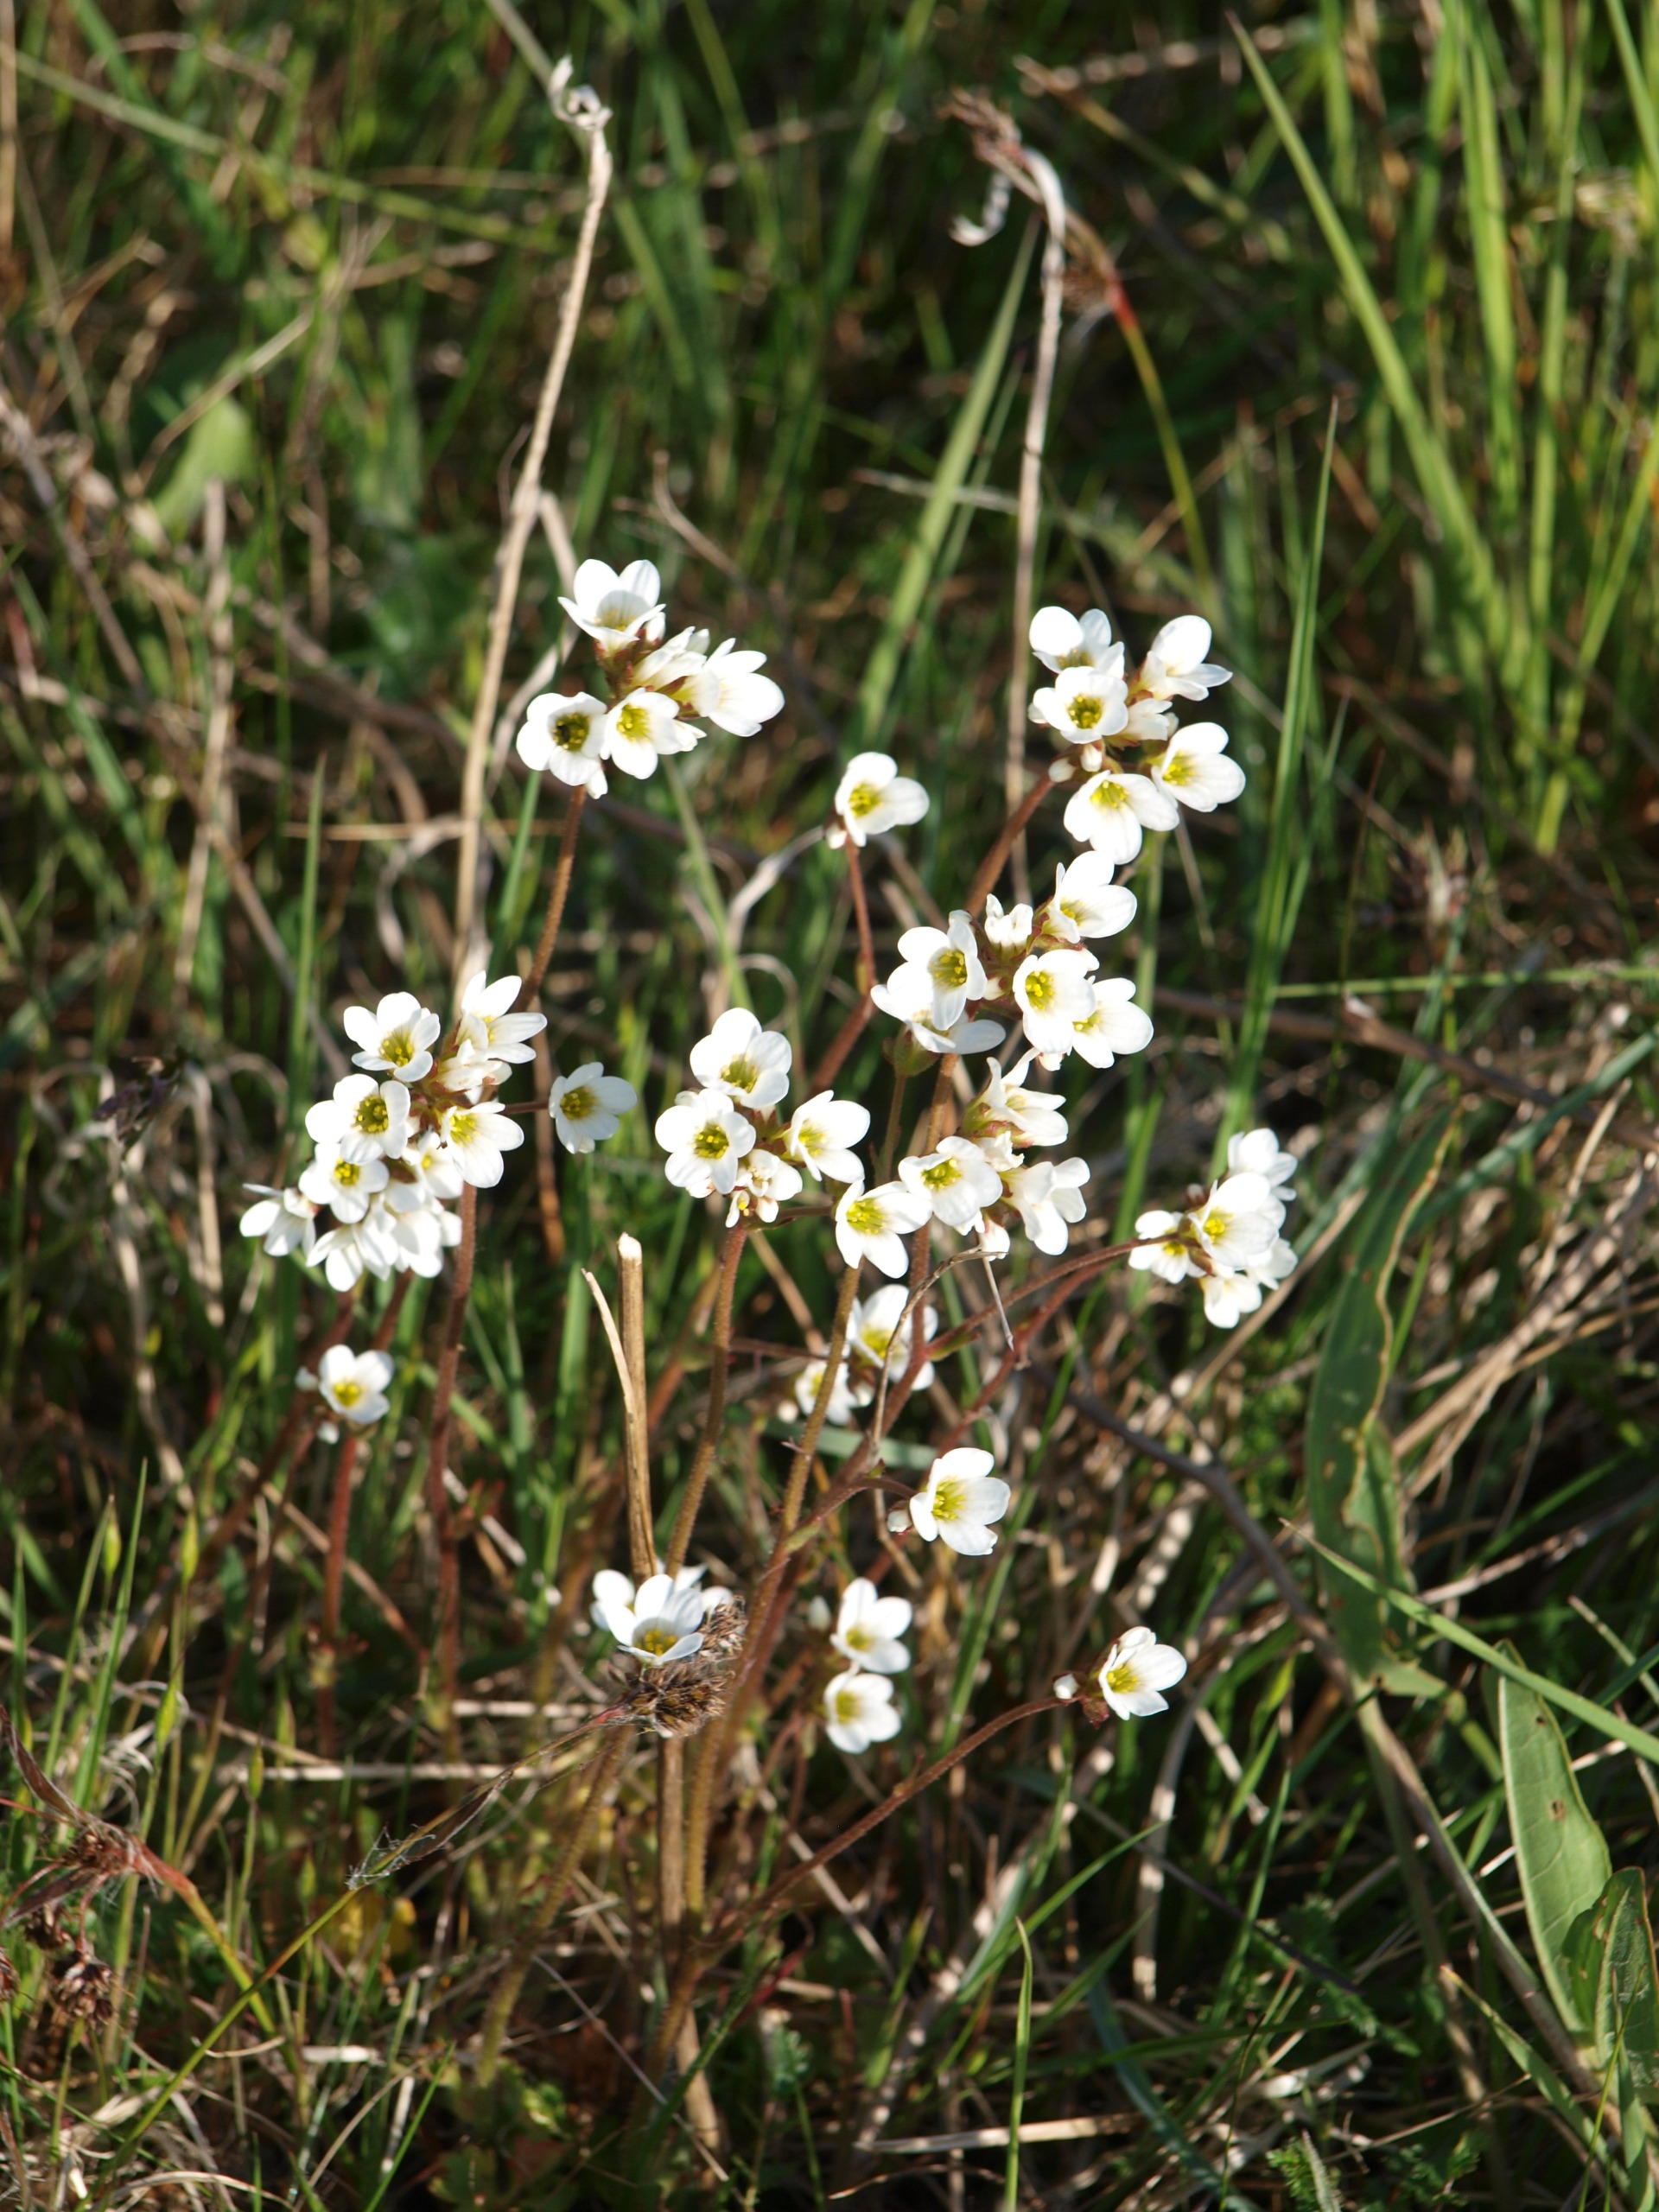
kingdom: Plantae
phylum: Tracheophyta
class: Magnoliopsida
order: Saxifragales
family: Saxifragaceae
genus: Saxifraga
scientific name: Saxifraga granulata
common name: Kornet stenbræk
